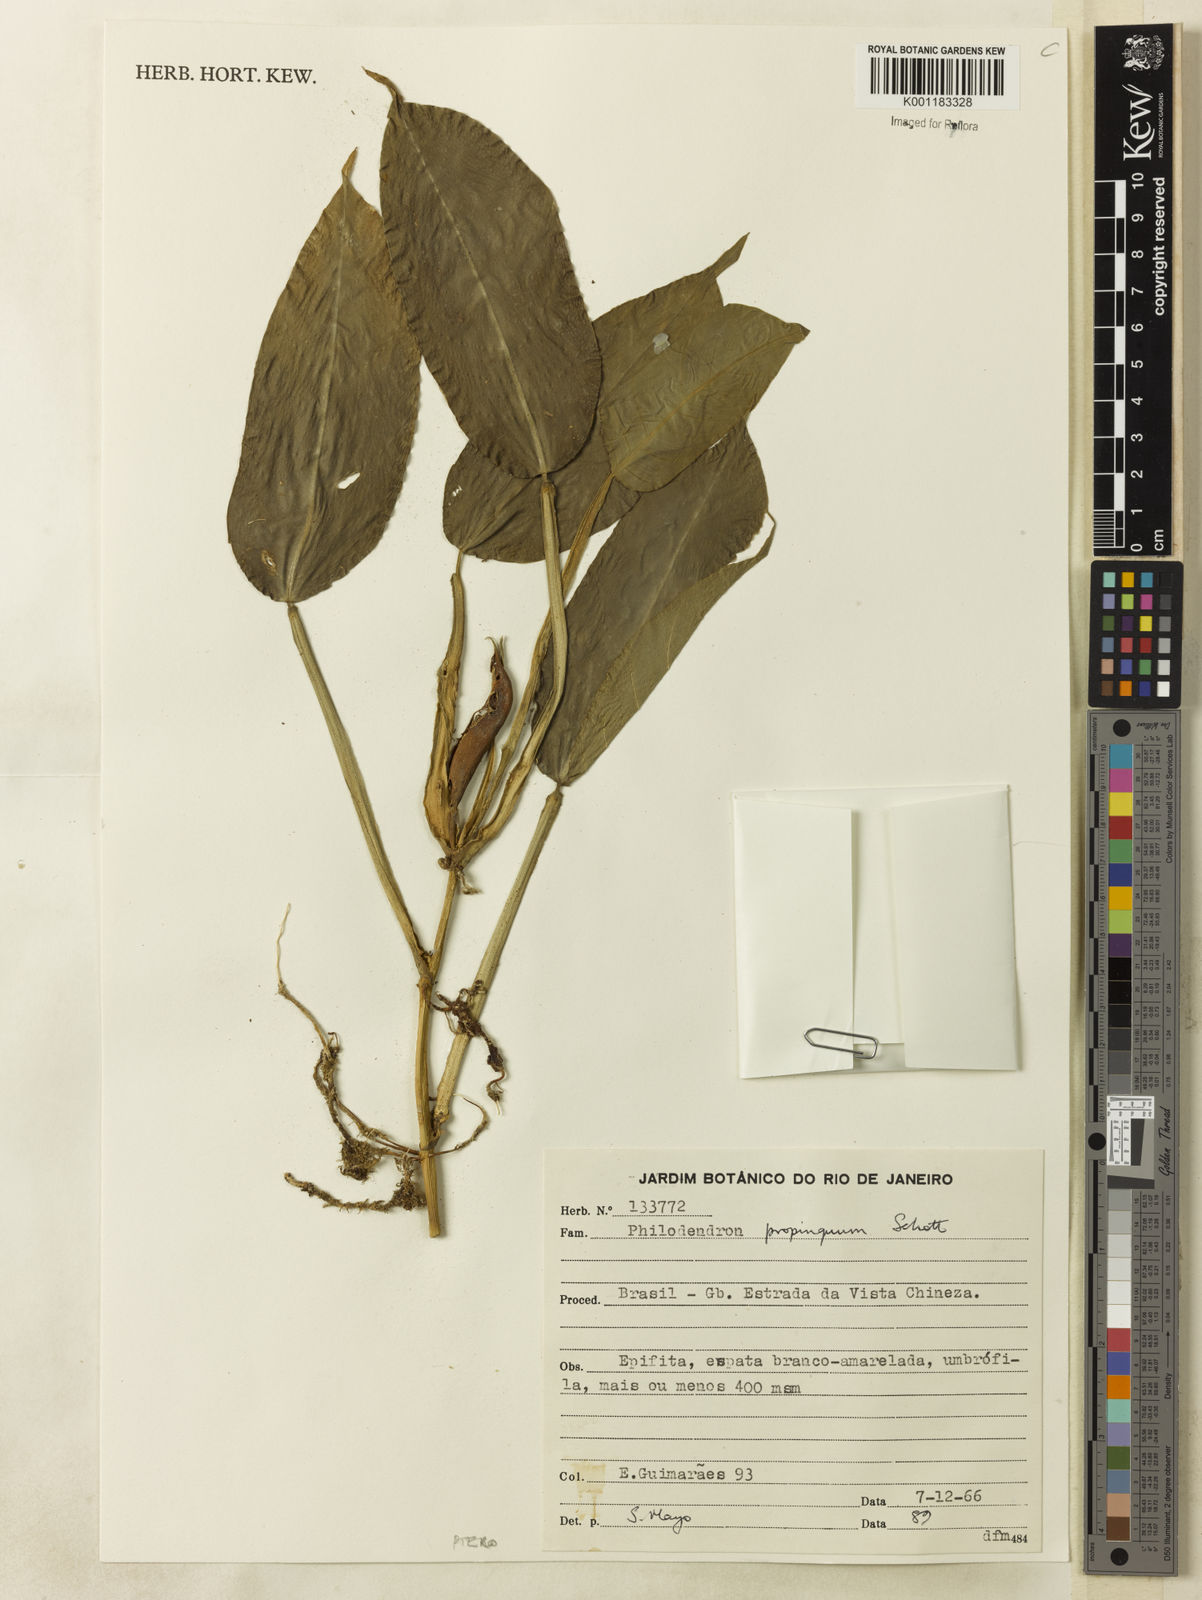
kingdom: Plantae
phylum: Tracheophyta
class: Liliopsida
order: Alismatales
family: Araceae
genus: Philodendron
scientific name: Philodendron propinquum
